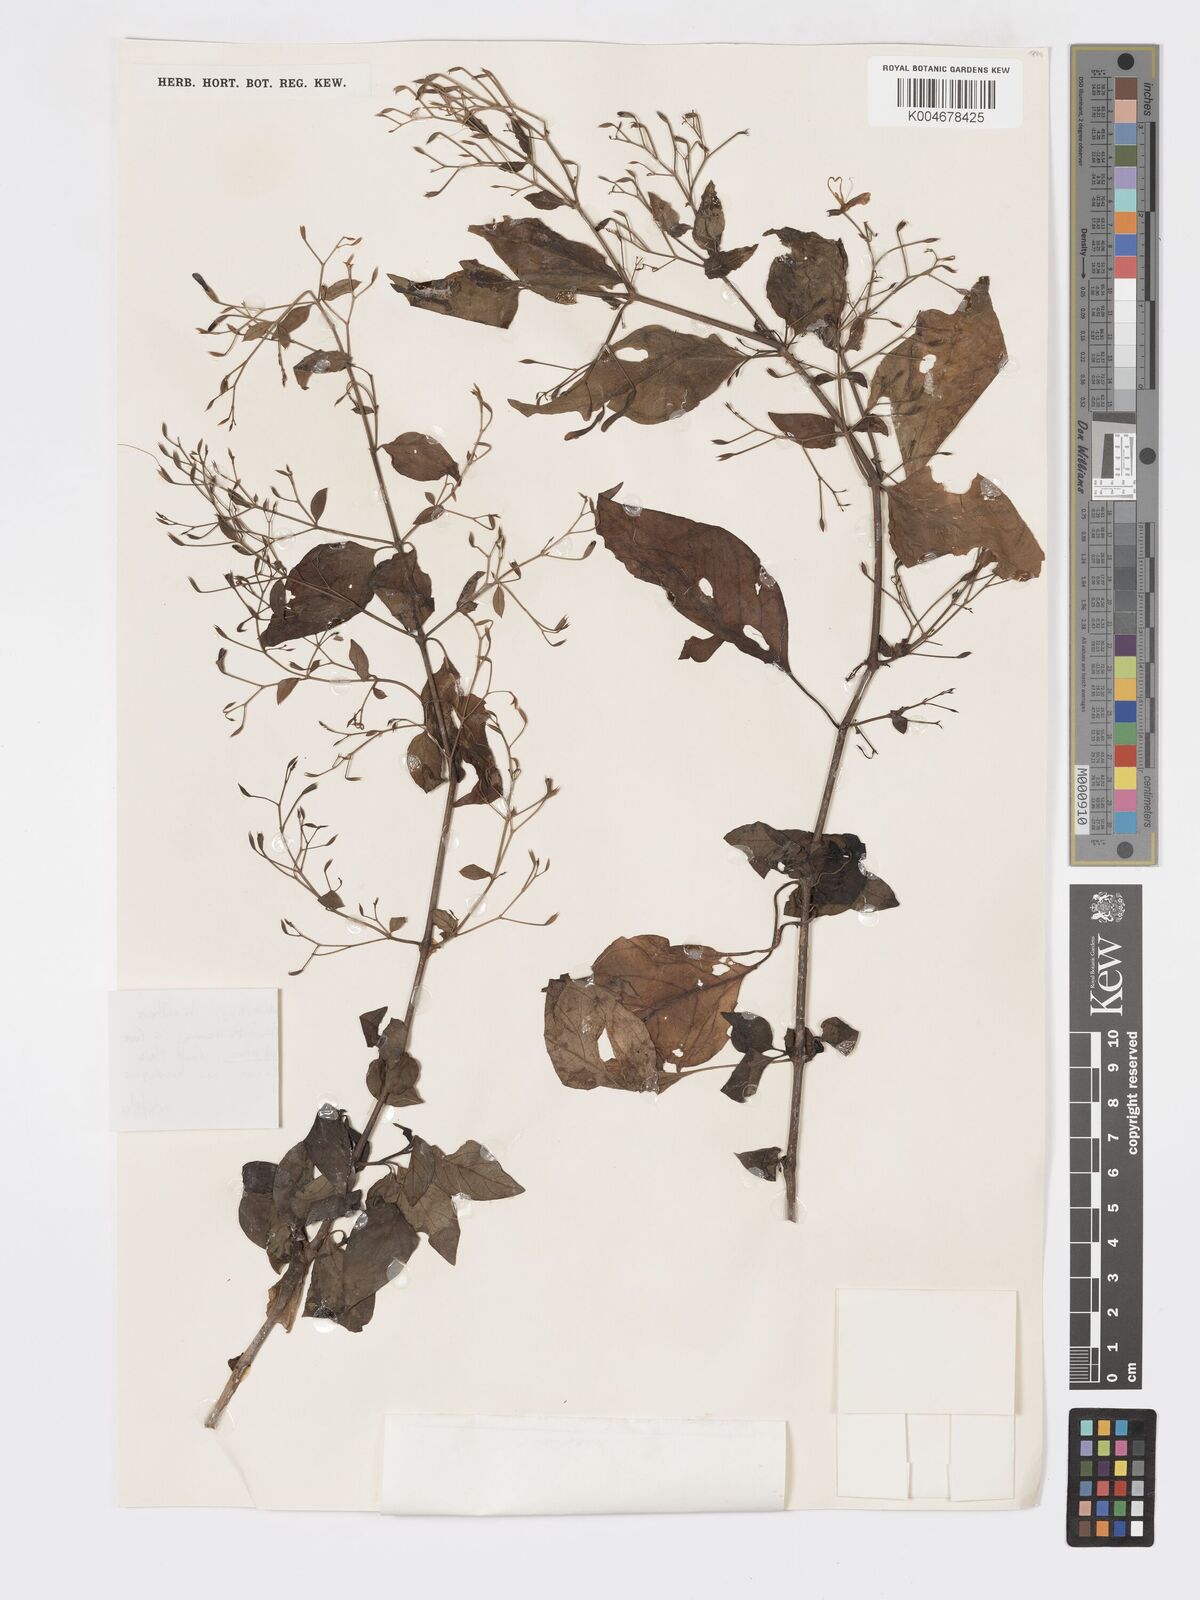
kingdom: Plantae
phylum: Tracheophyta
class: Magnoliopsida
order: Lamiales
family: Acanthaceae
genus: Hypoestes
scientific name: Hypoestes
